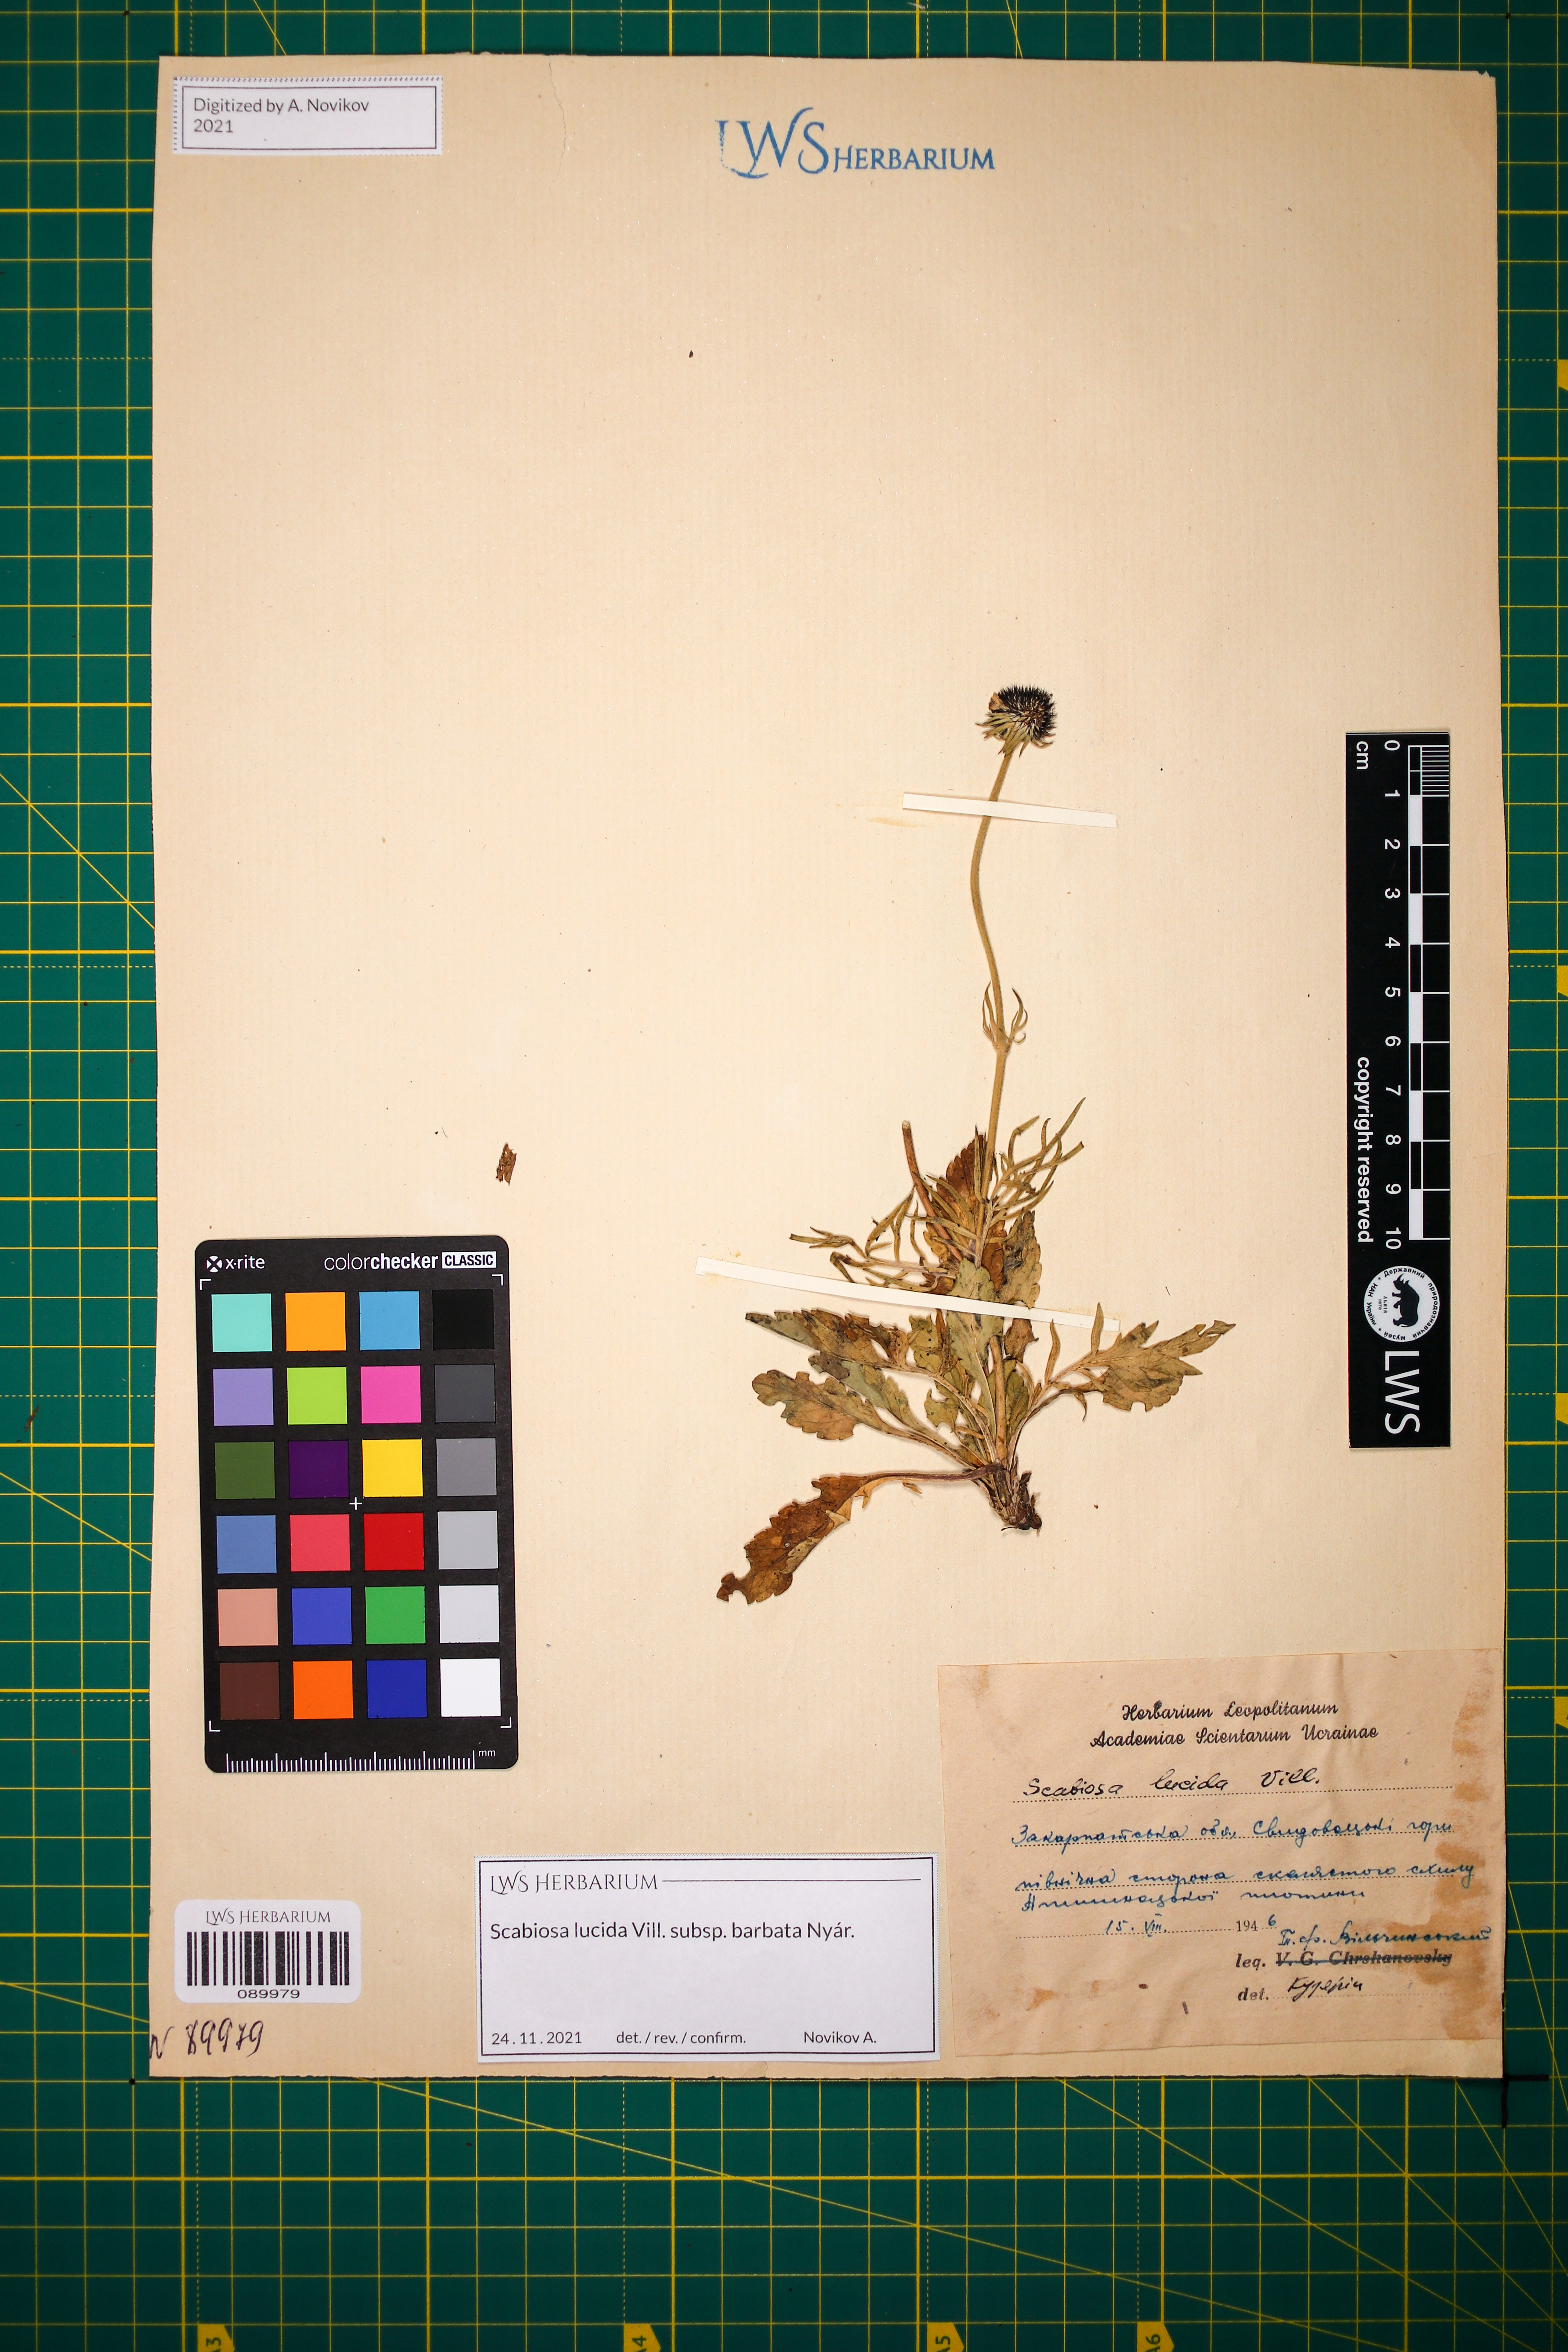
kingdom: Plantae
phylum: Tracheophyta
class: Magnoliopsida
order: Dipsacales
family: Caprifoliaceae
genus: Scabiosa
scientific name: Scabiosa lucida
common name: Shining scabious
